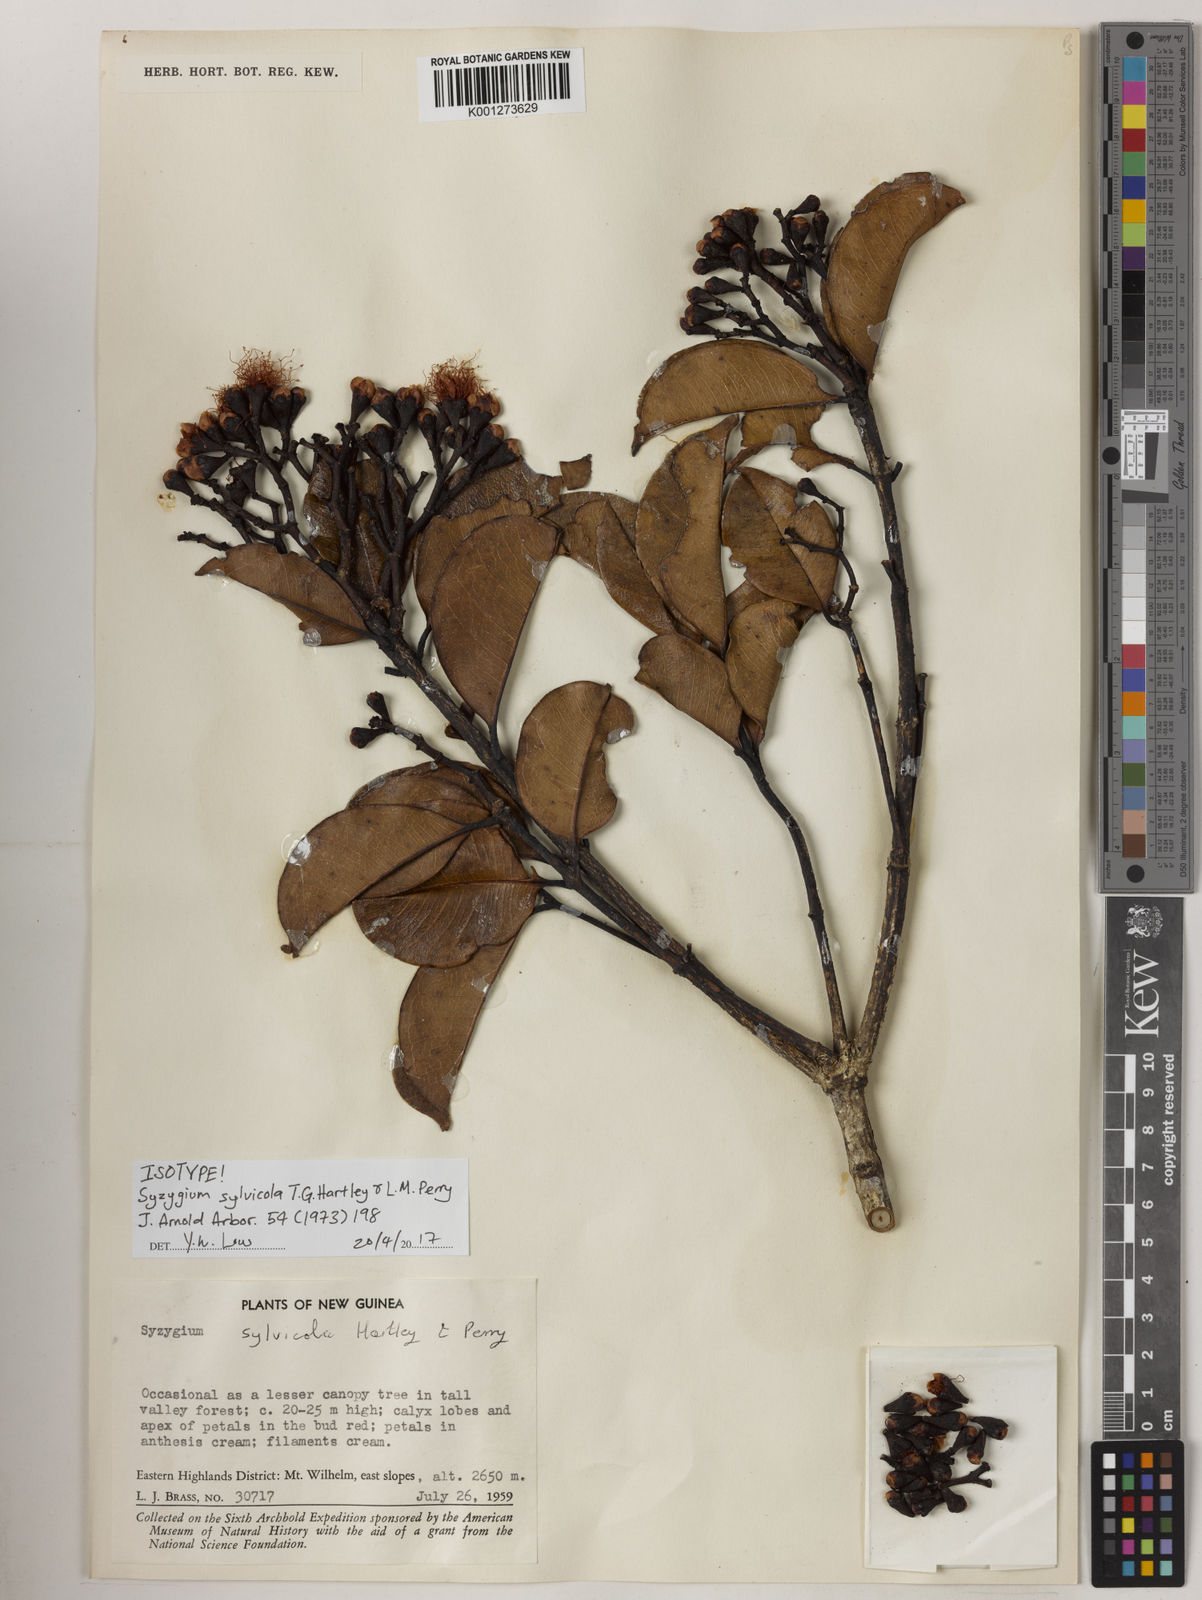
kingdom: Plantae
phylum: Tracheophyta
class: Magnoliopsida
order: Myrtales
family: Myrtaceae
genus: Syzygium
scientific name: Syzygium sylvicola
